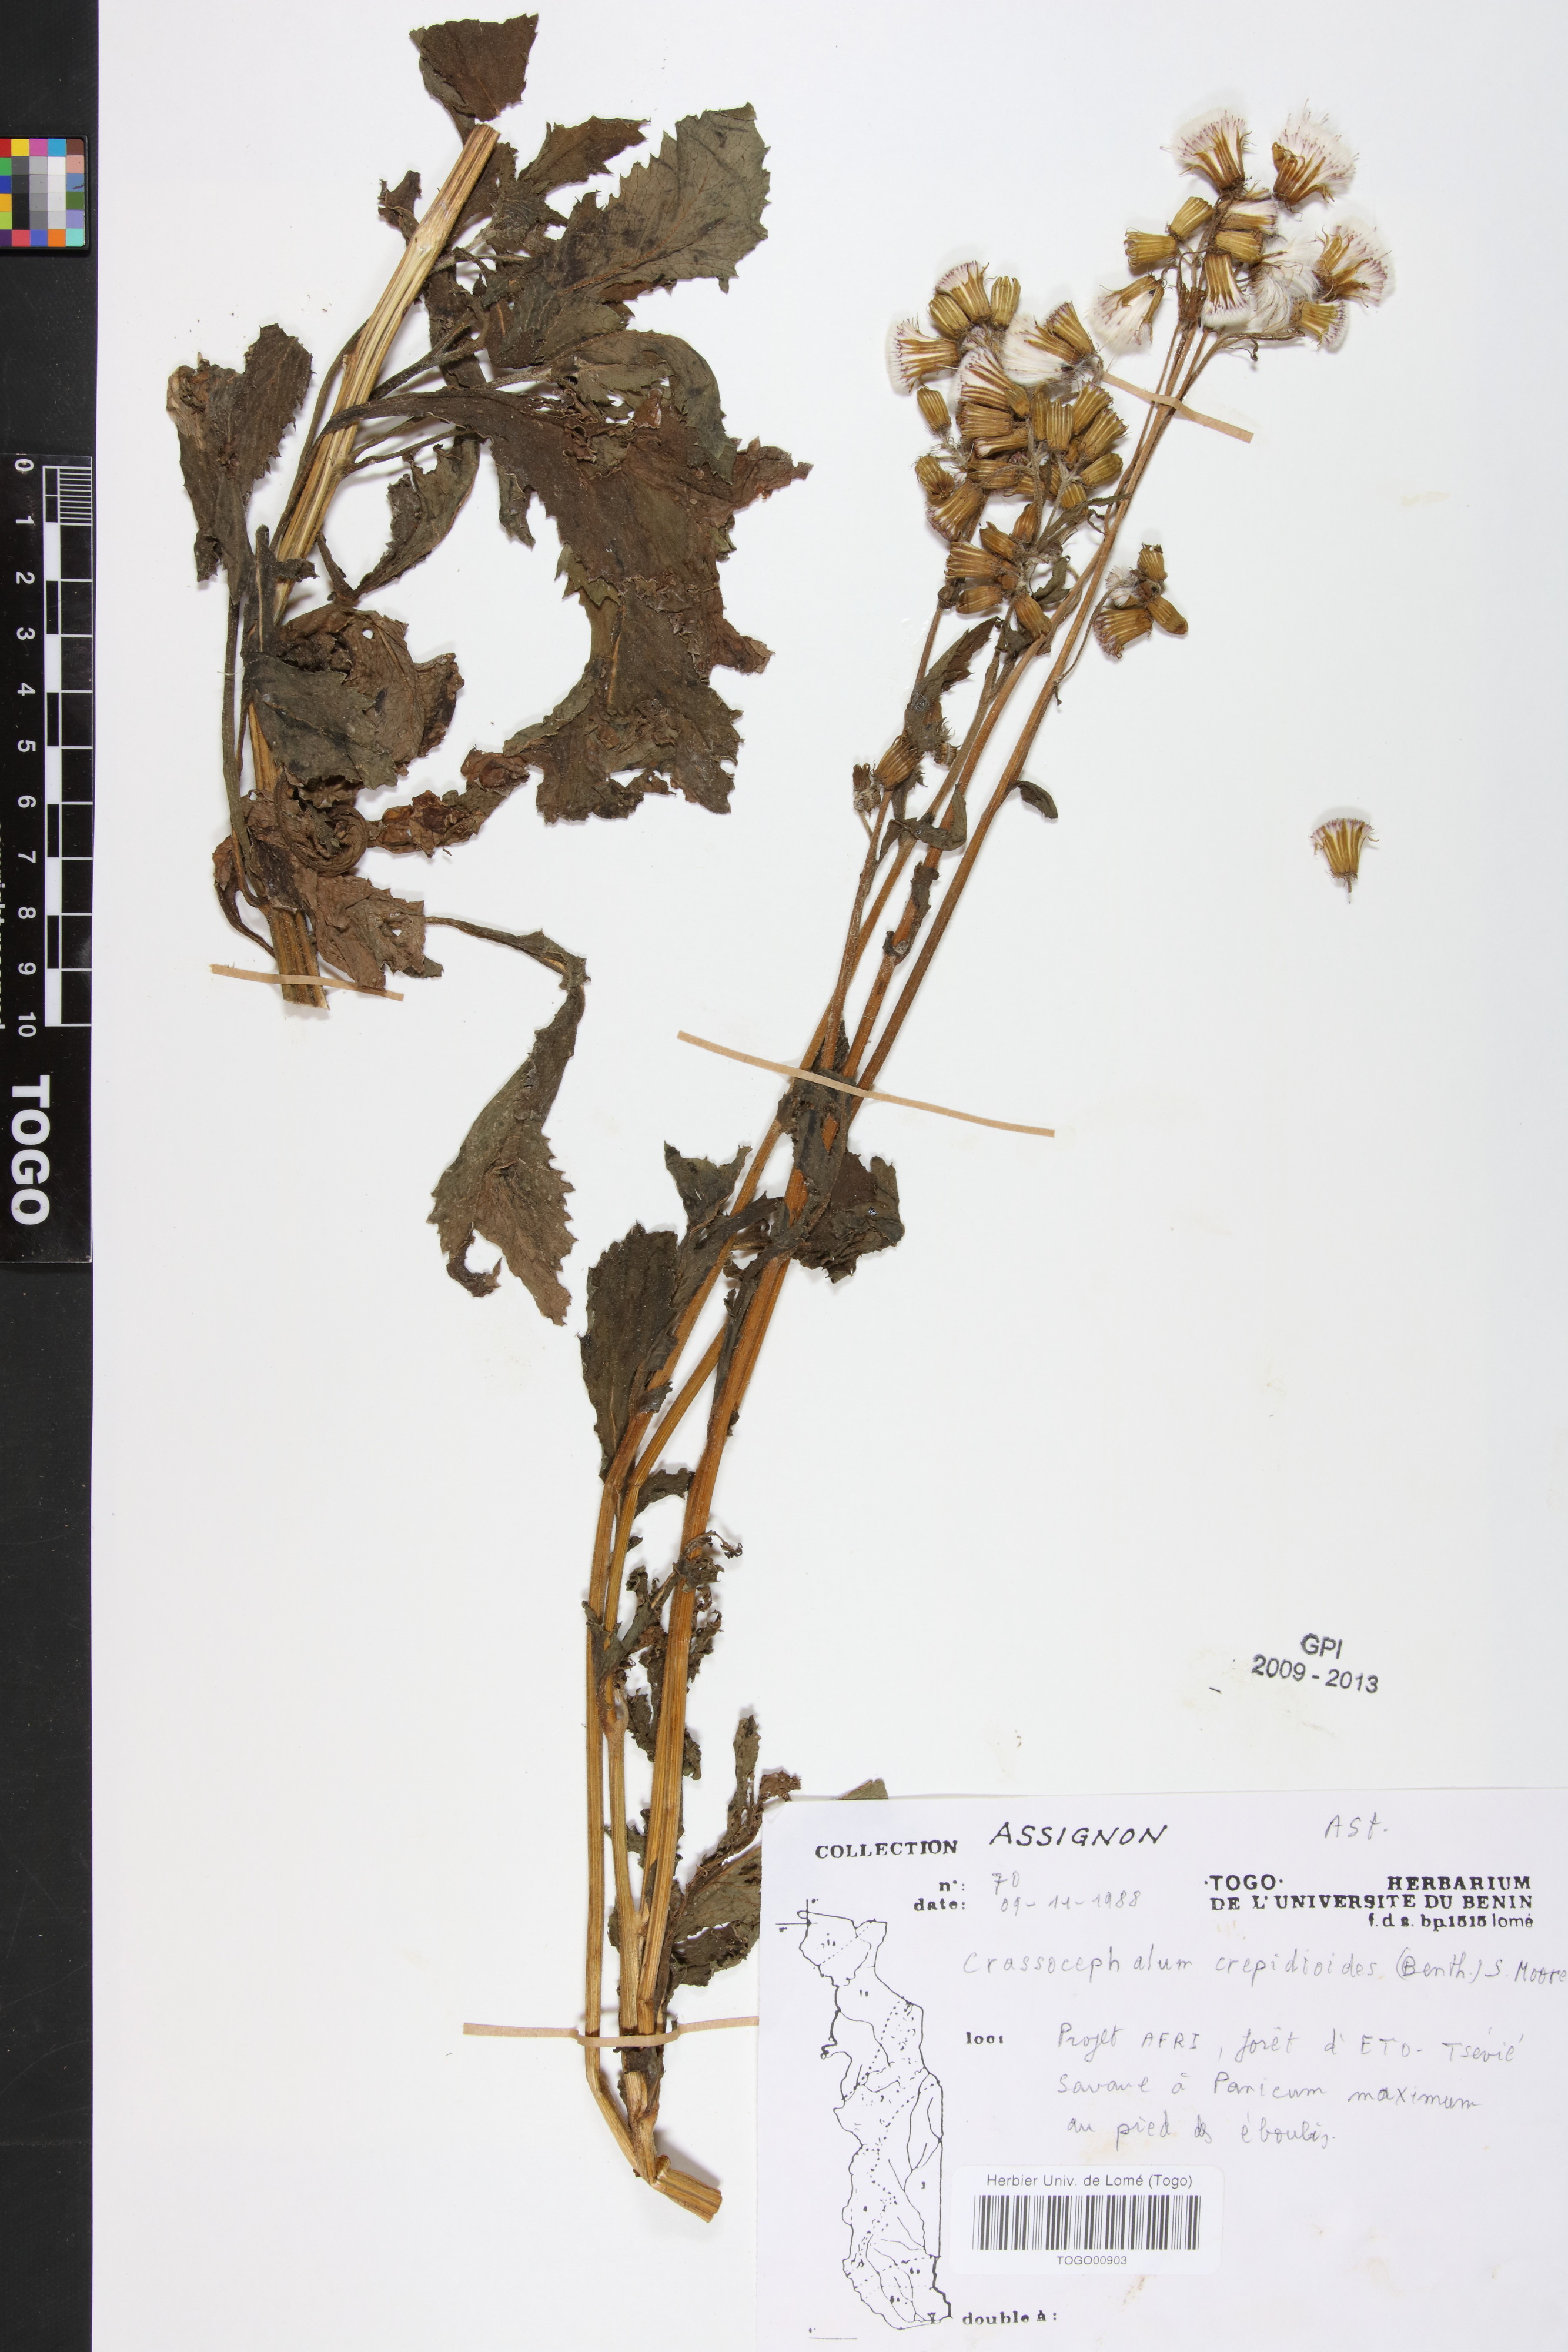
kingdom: Plantae
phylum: Tracheophyta
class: Magnoliopsida
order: Asterales
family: Asteraceae
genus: Crassocephalum
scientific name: Crassocephalum crepidioides
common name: Redflower ragleaf
